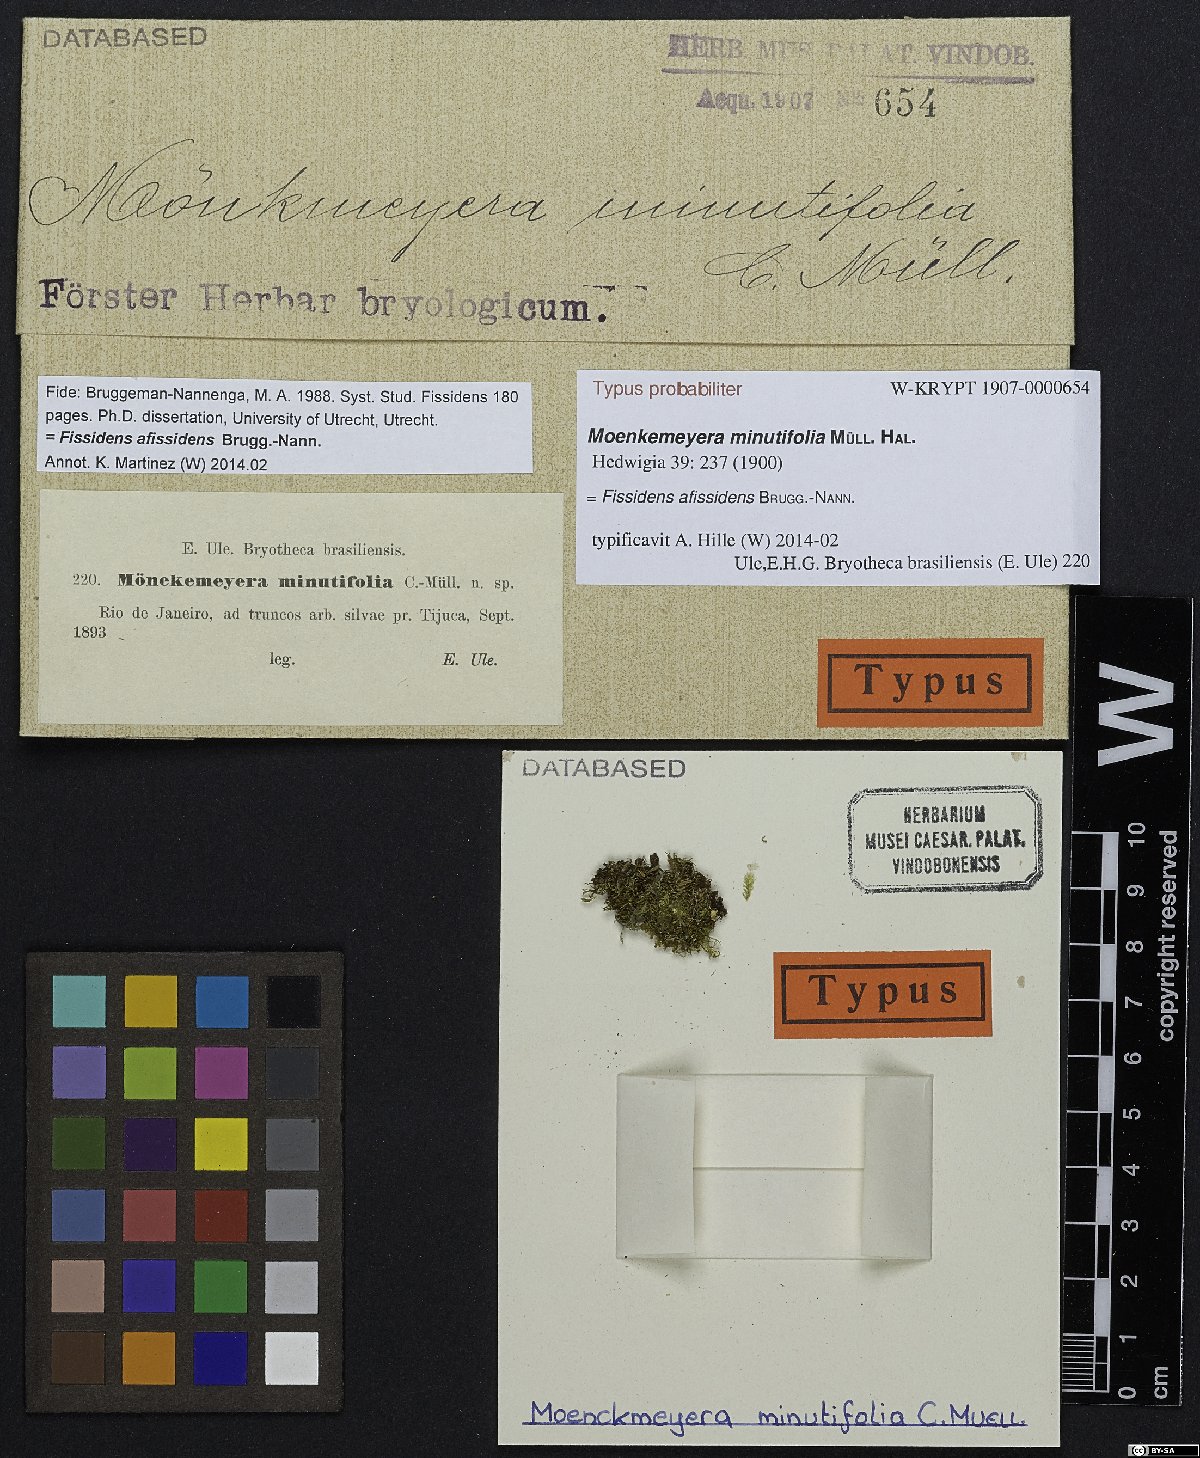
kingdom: Plantae
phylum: Bryophyta
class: Bryopsida
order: Dicranales
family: Fissidentaceae
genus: Fissidens
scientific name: Fissidens lagenarius
